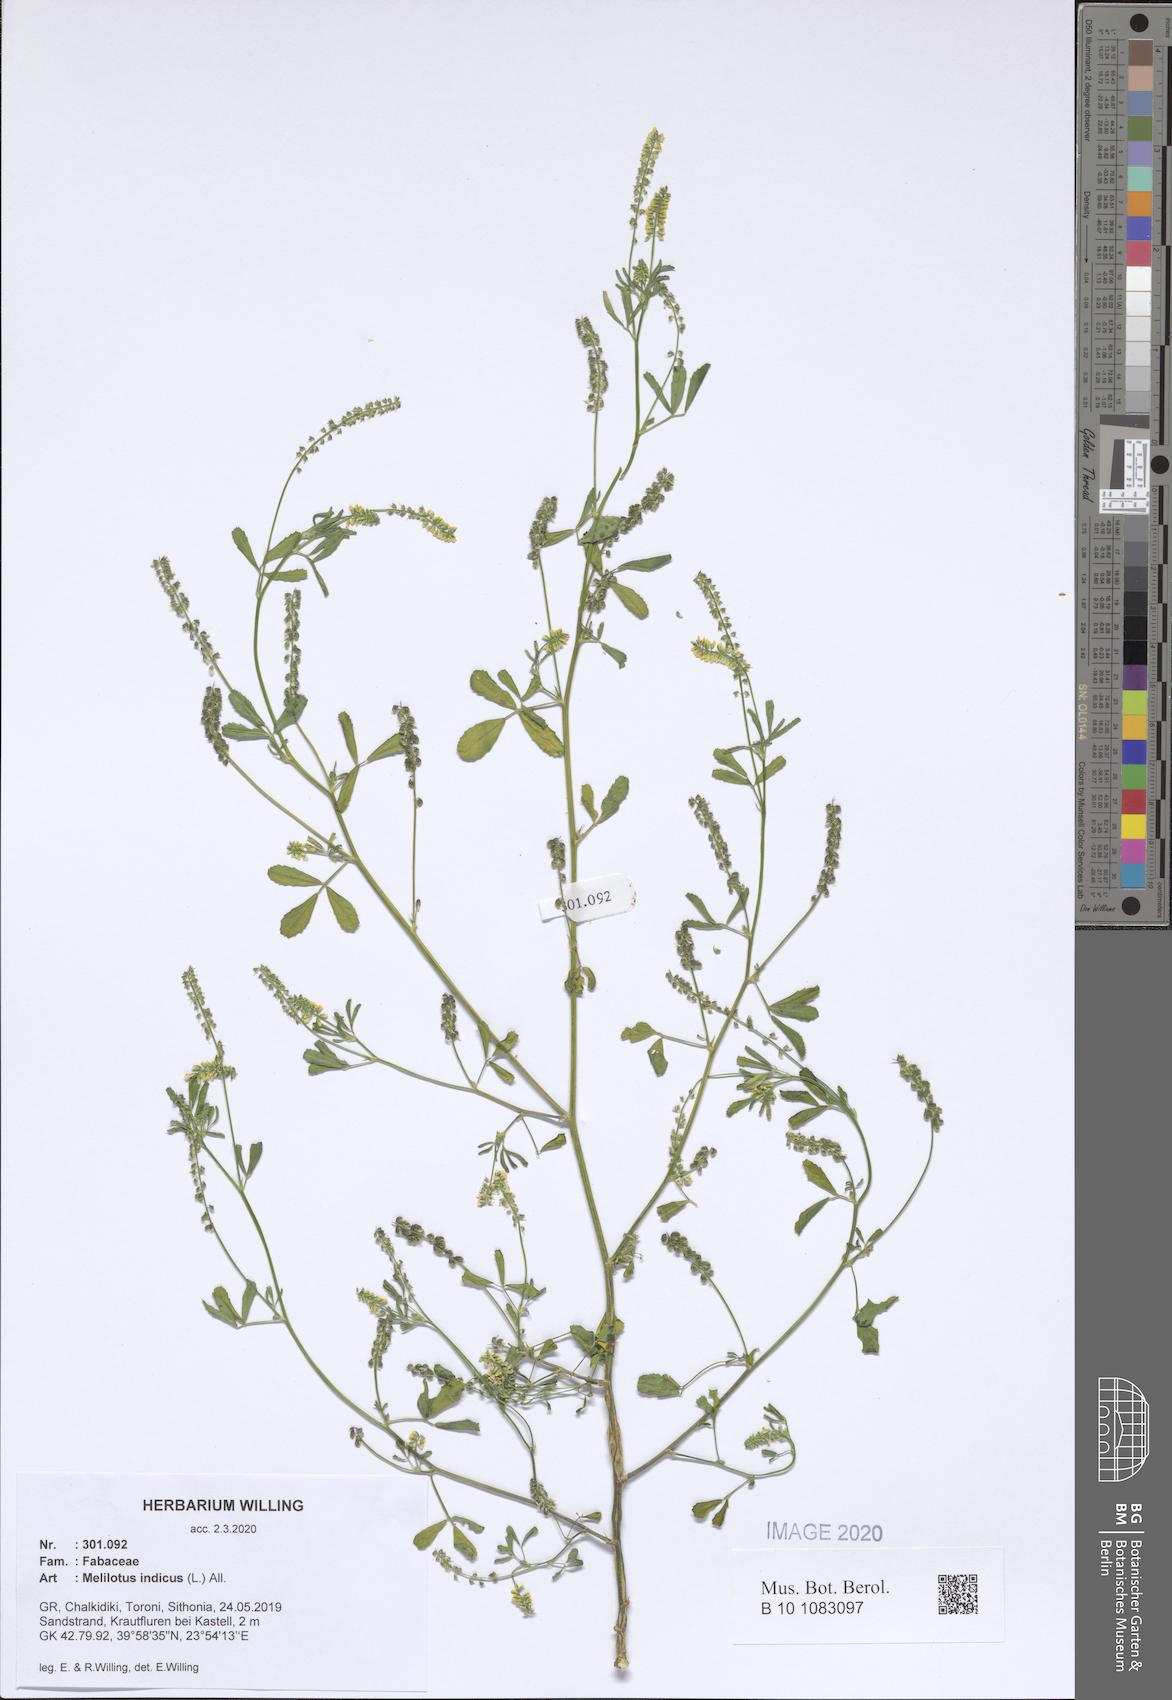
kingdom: Plantae
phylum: Tracheophyta
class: Magnoliopsida
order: Fabales
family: Fabaceae
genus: Melilotus
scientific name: Melilotus indicus
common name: Small melilot
